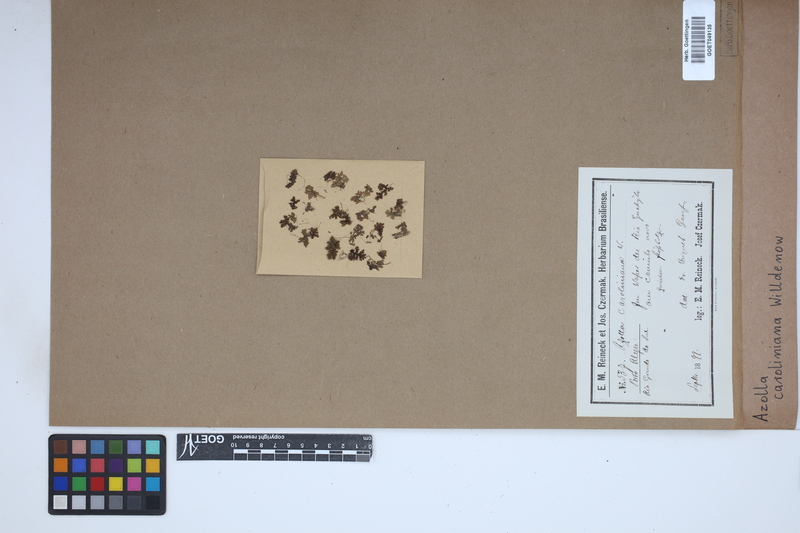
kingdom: Plantae
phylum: Tracheophyta
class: Polypodiopsida
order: Salviniales
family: Salviniaceae
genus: Azolla
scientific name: Azolla caroliniana
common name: Carolina mosquitofern
